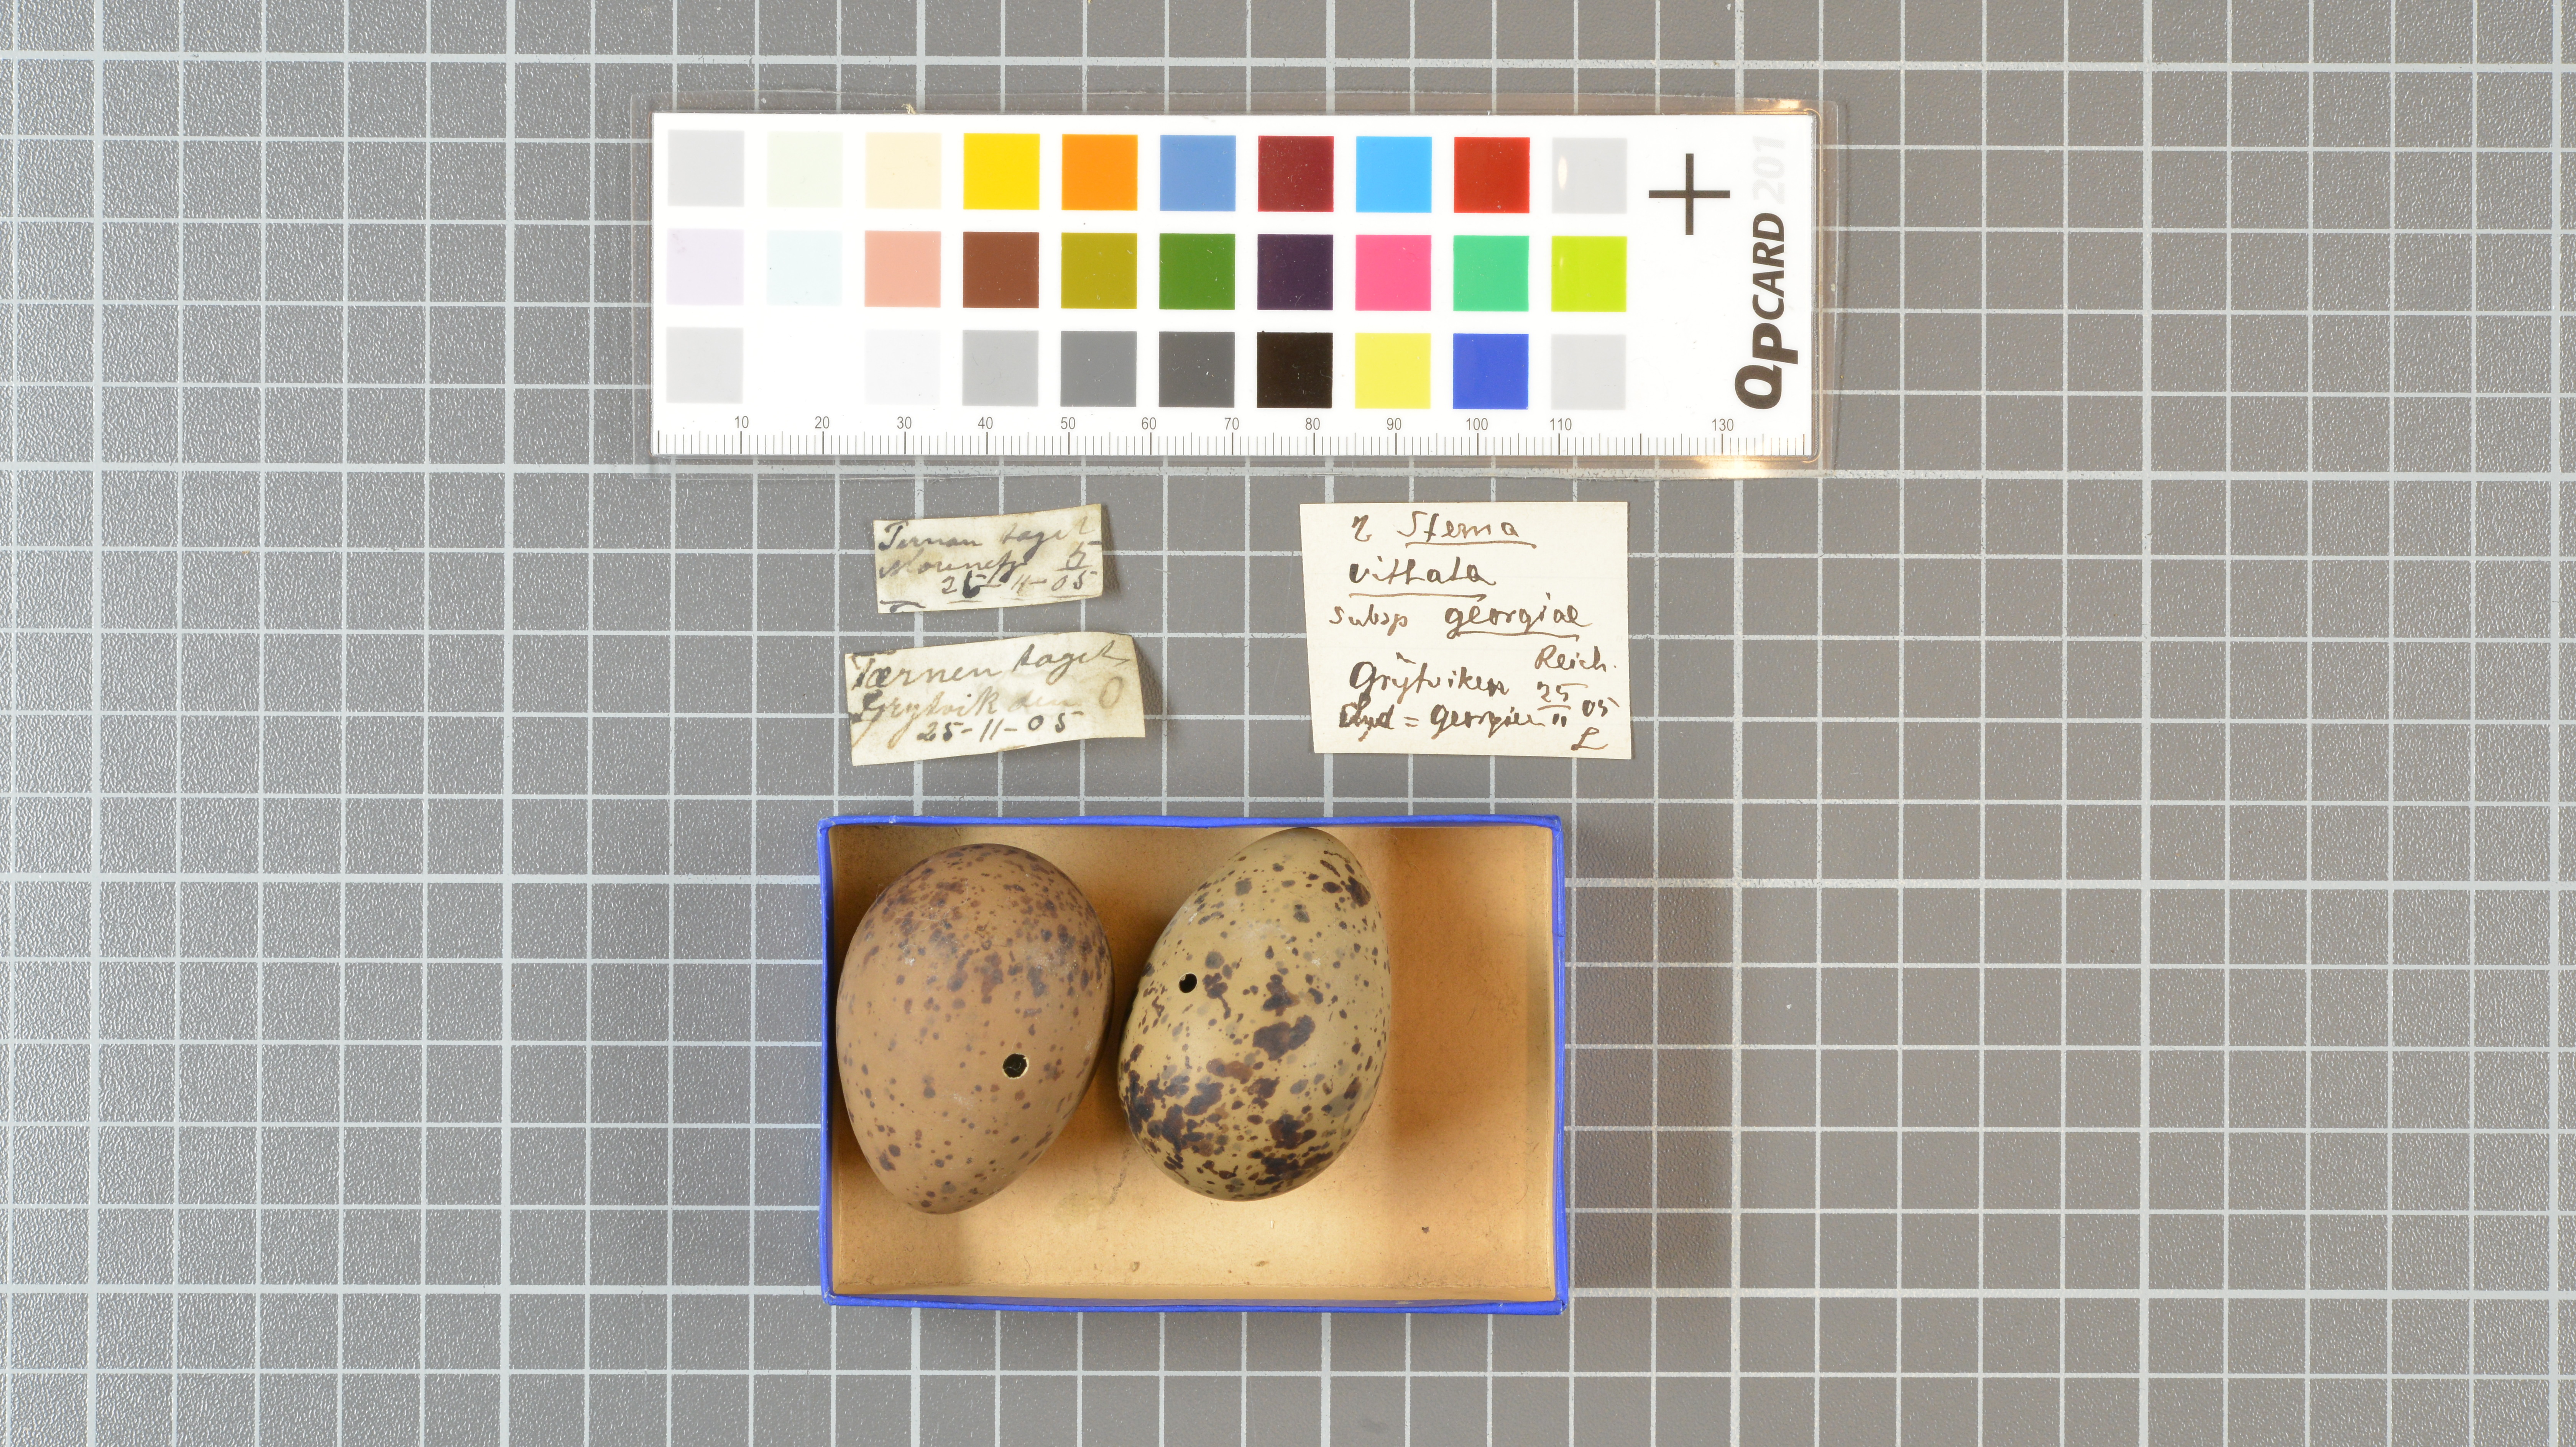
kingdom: Animalia
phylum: Chordata
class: Aves
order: Charadriiformes
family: Laridae
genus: Sterna
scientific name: Sterna vittata
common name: Antarctic tern
